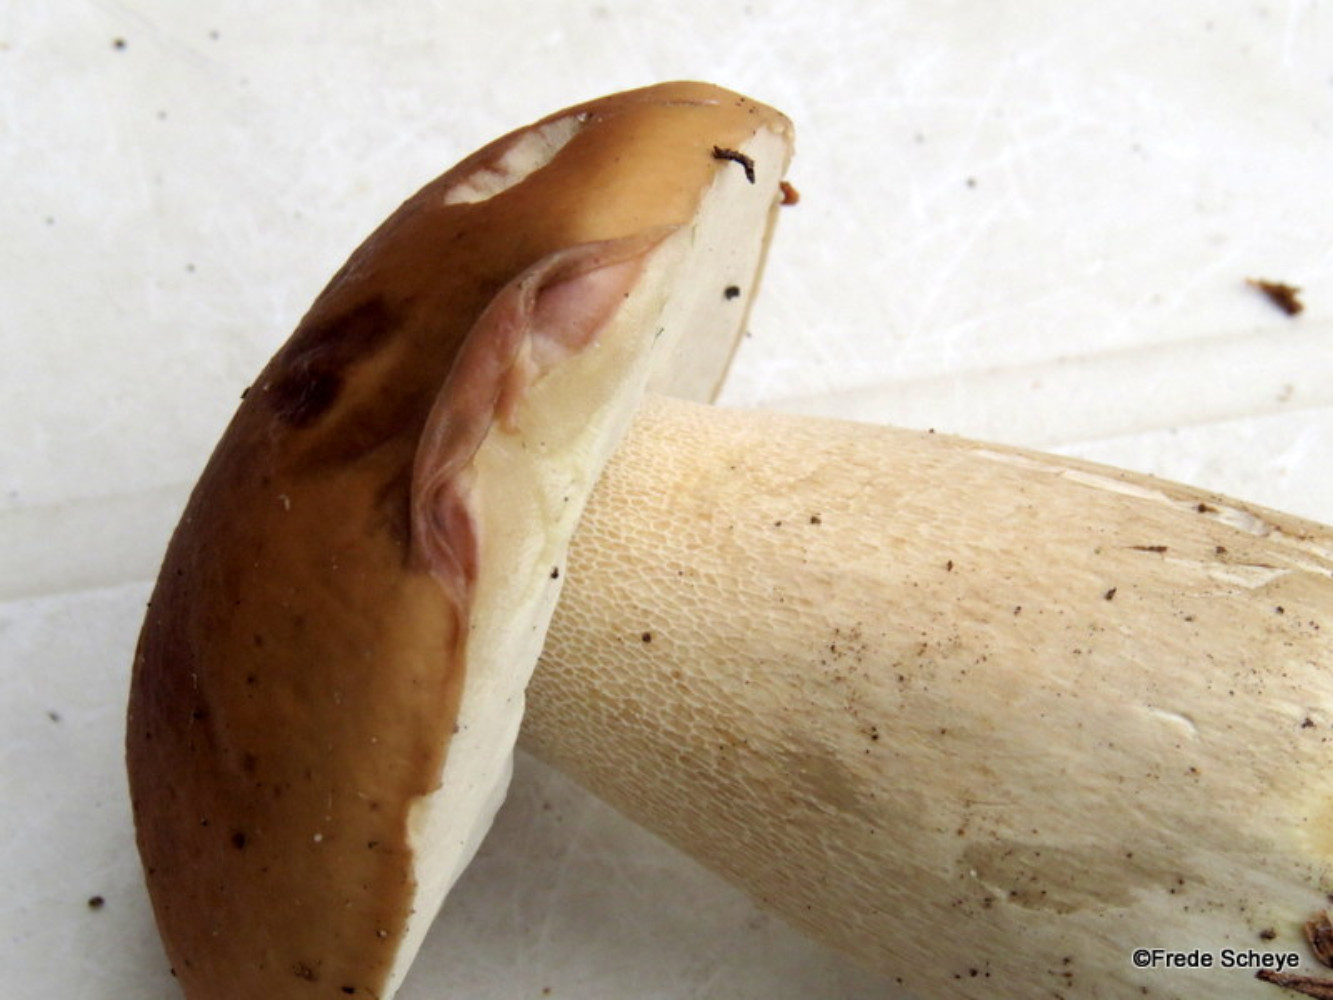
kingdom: Fungi
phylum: Basidiomycota
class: Agaricomycetes
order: Boletales
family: Boletaceae
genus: Boletus
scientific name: Boletus edulis
